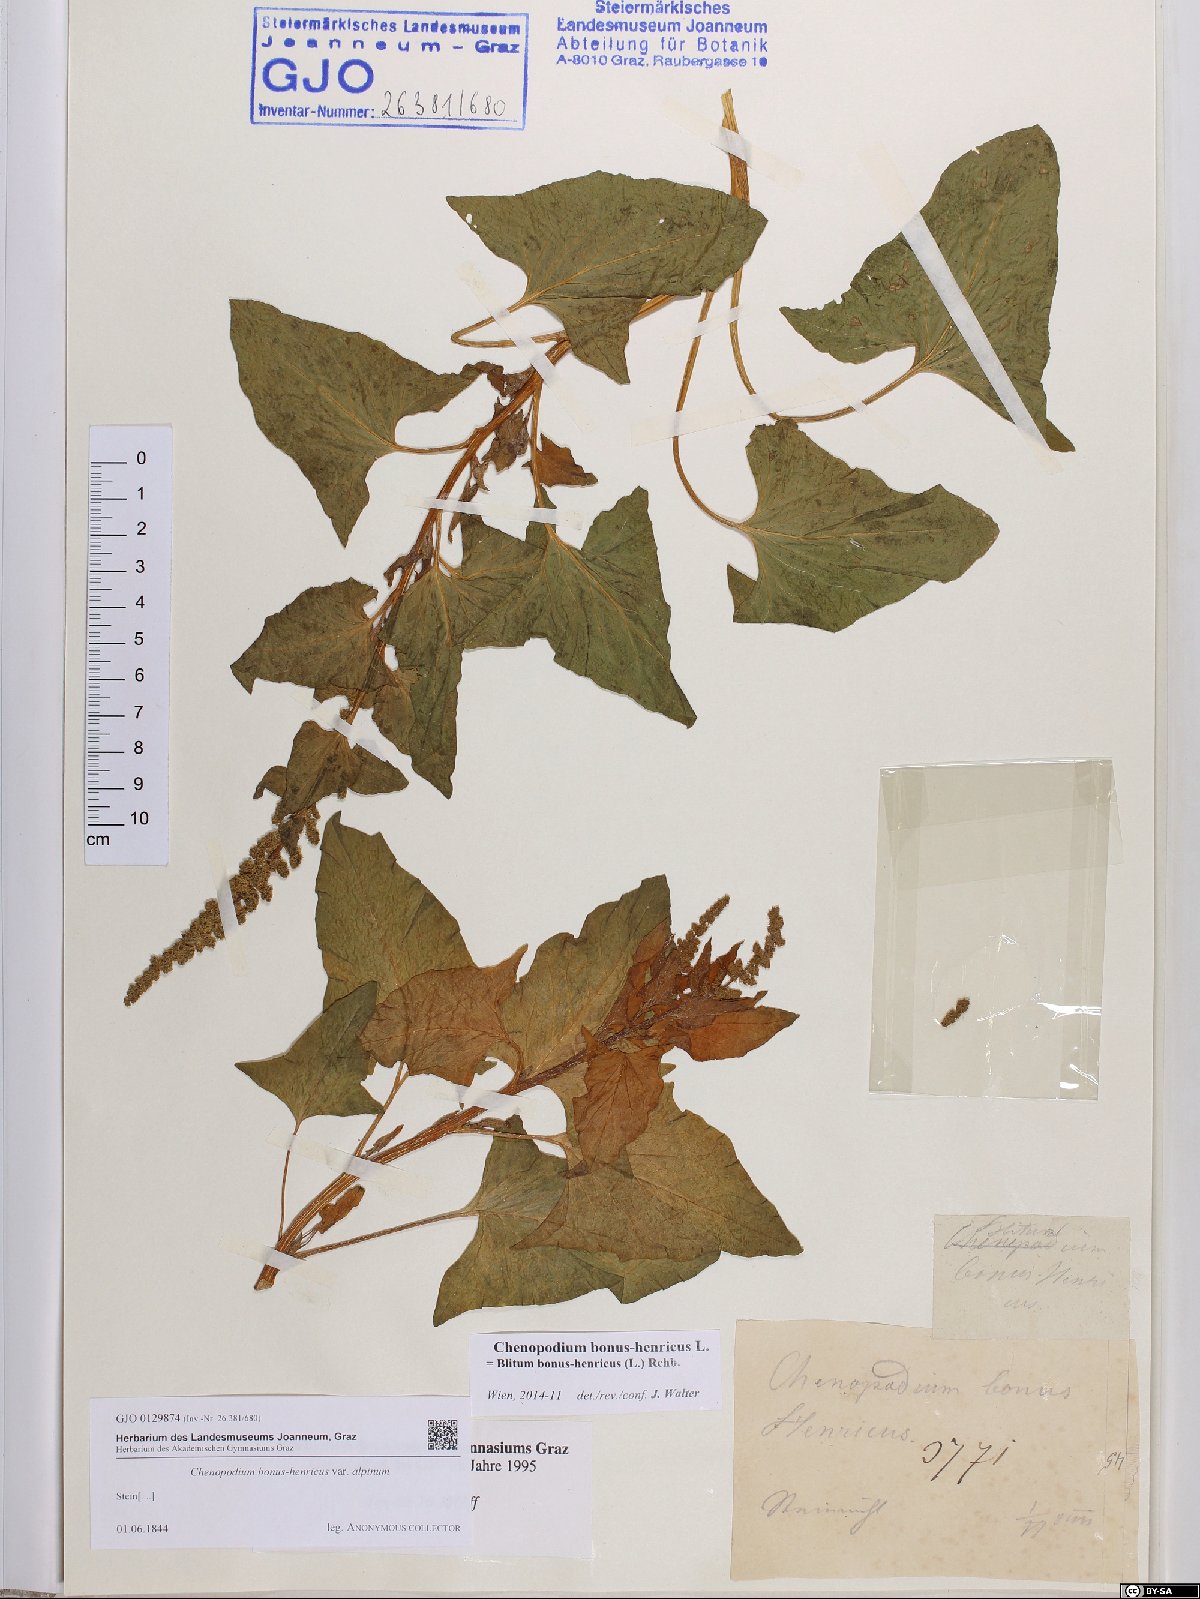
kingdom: Plantae
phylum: Tracheophyta
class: Magnoliopsida
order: Caryophyllales
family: Amaranthaceae
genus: Blitum
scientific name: Blitum bonus-henricus
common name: Good king henry
